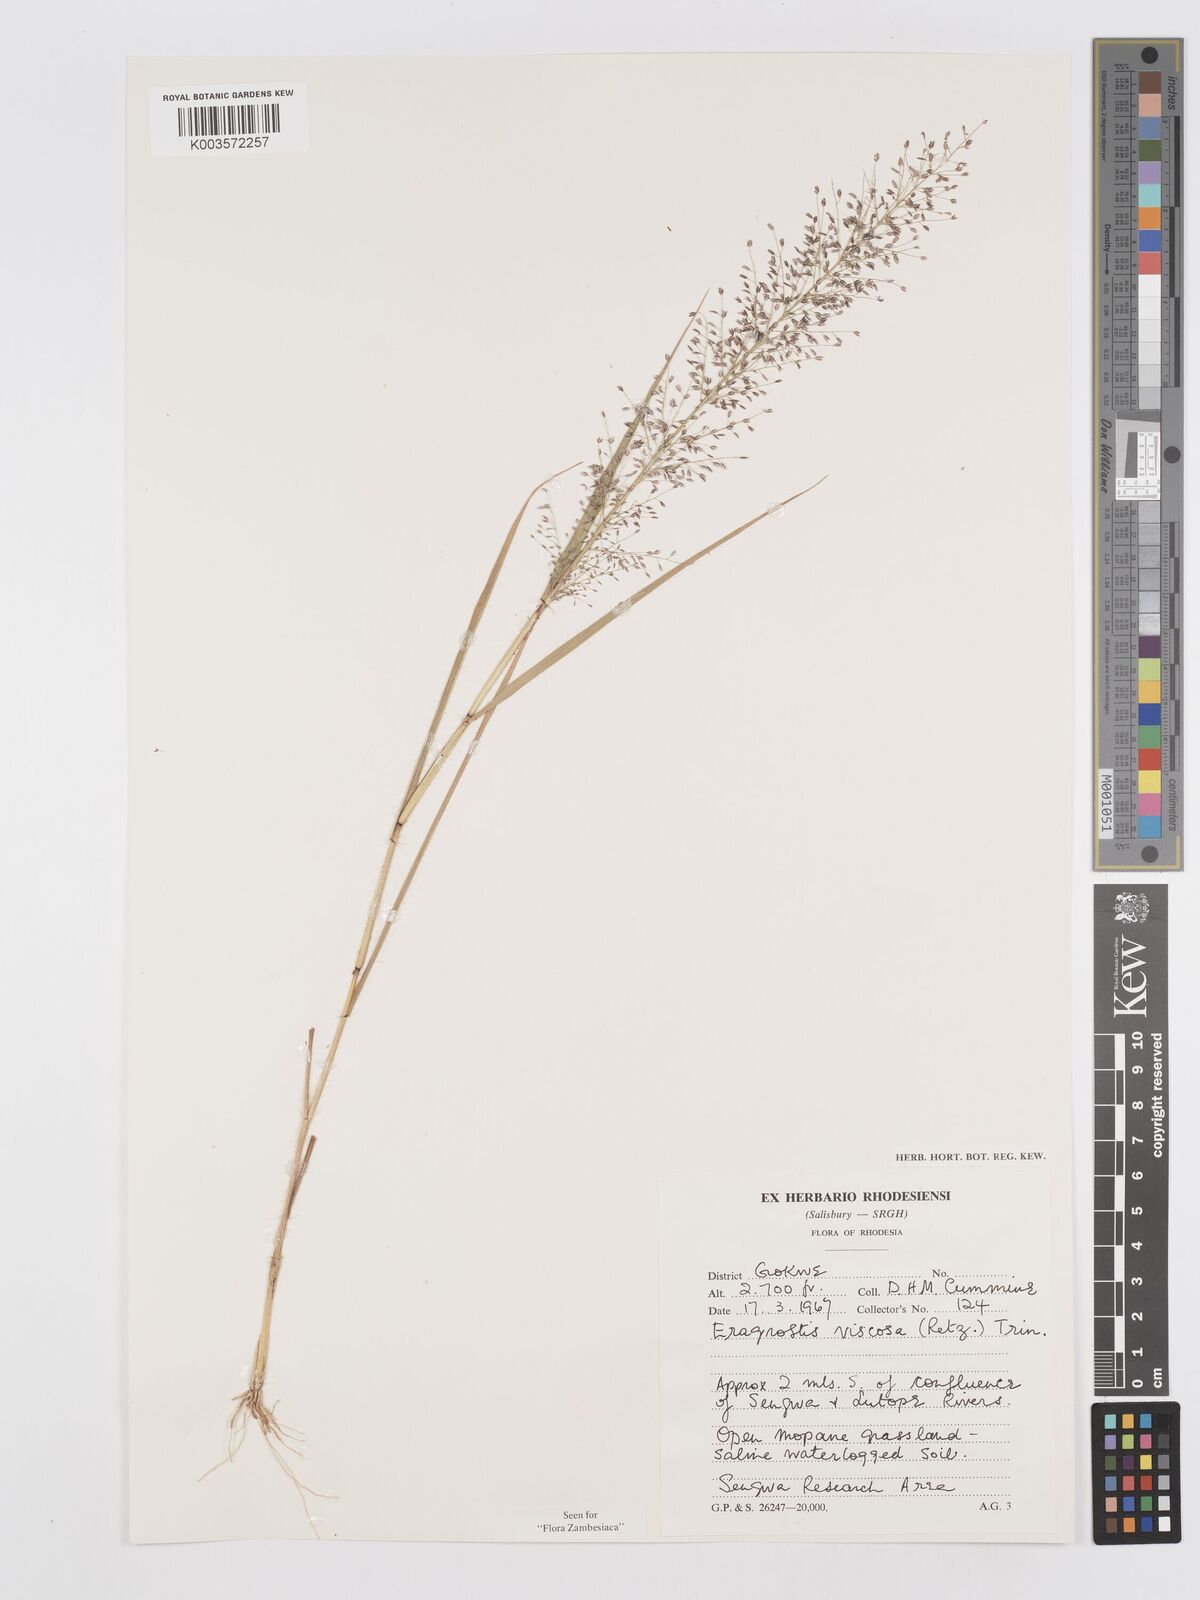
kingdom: Plantae
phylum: Tracheophyta
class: Liliopsida
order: Poales
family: Poaceae
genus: Eragrostis
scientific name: Eragrostis
